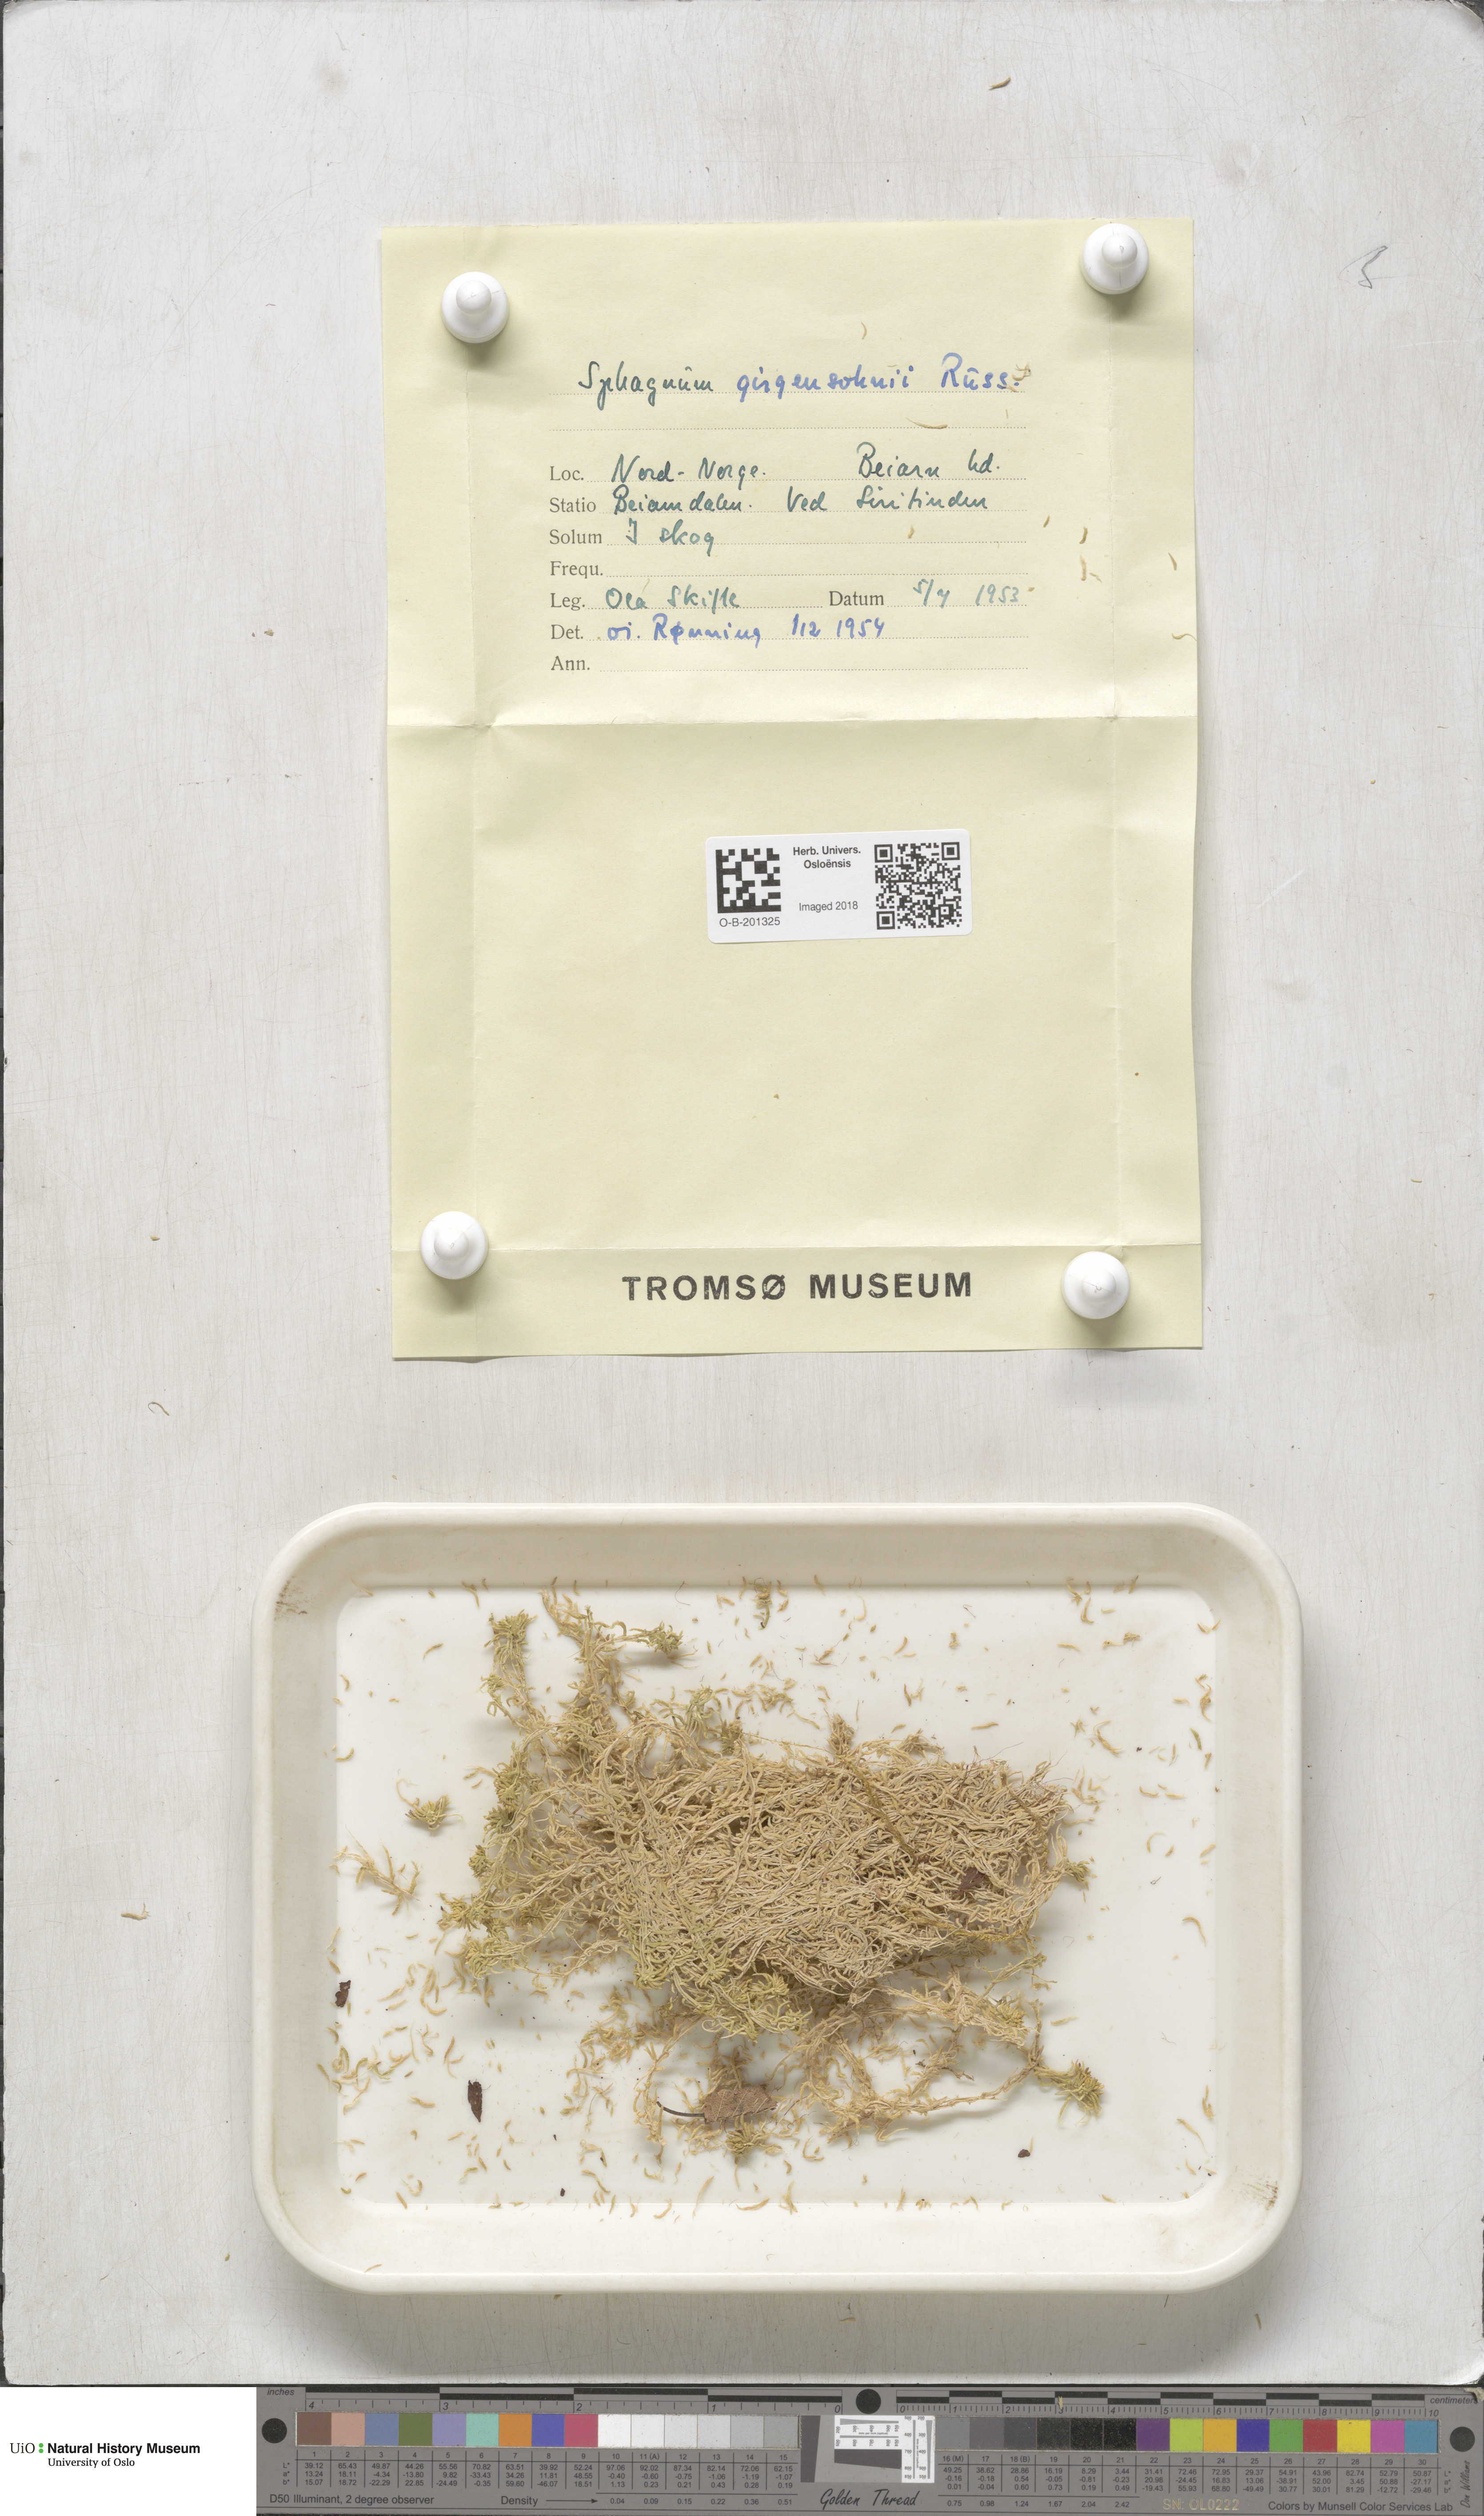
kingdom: Plantae
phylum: Bryophyta
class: Sphagnopsida
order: Sphagnales
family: Sphagnaceae
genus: Sphagnum
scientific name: Sphagnum girgensohnii
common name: Girgensohn's peat moss
